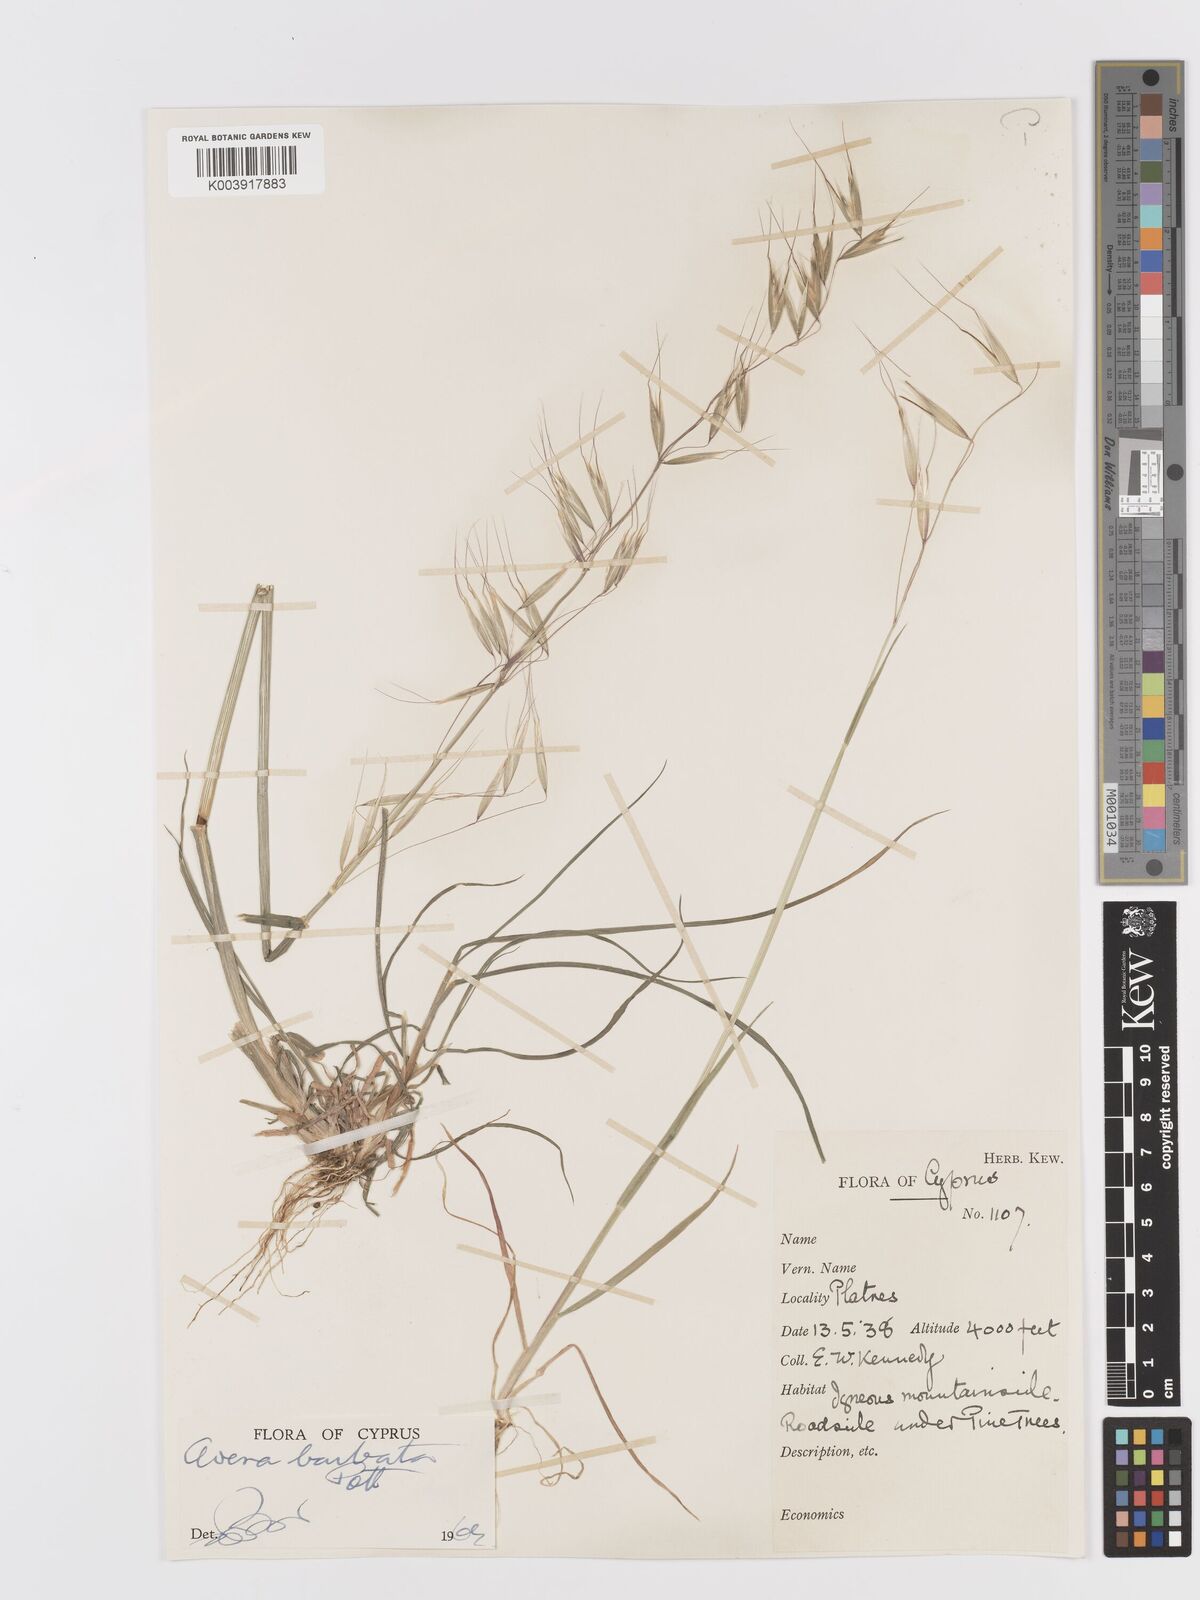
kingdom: Plantae
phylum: Tracheophyta
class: Liliopsida
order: Poales
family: Poaceae
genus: Avena
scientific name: Avena
